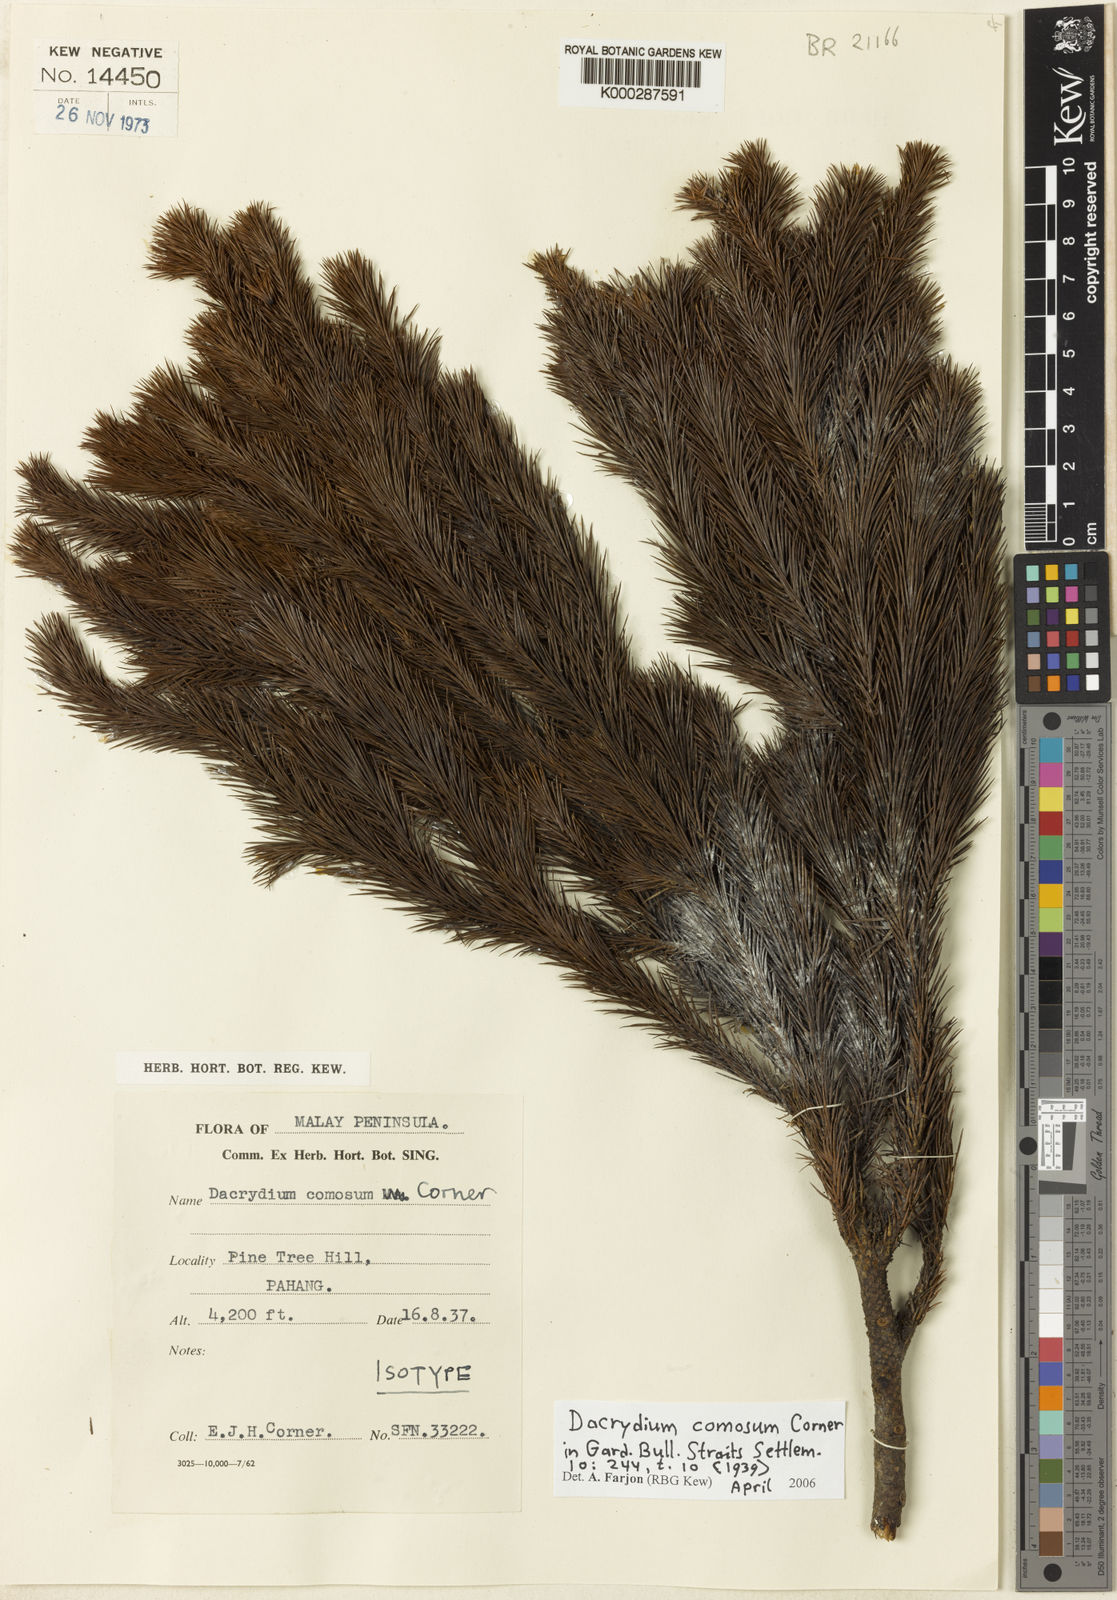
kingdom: Plantae
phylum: Tracheophyta
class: Pinopsida
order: Pinales
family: Podocarpaceae
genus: Dacrydium
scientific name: Dacrydium comosum
